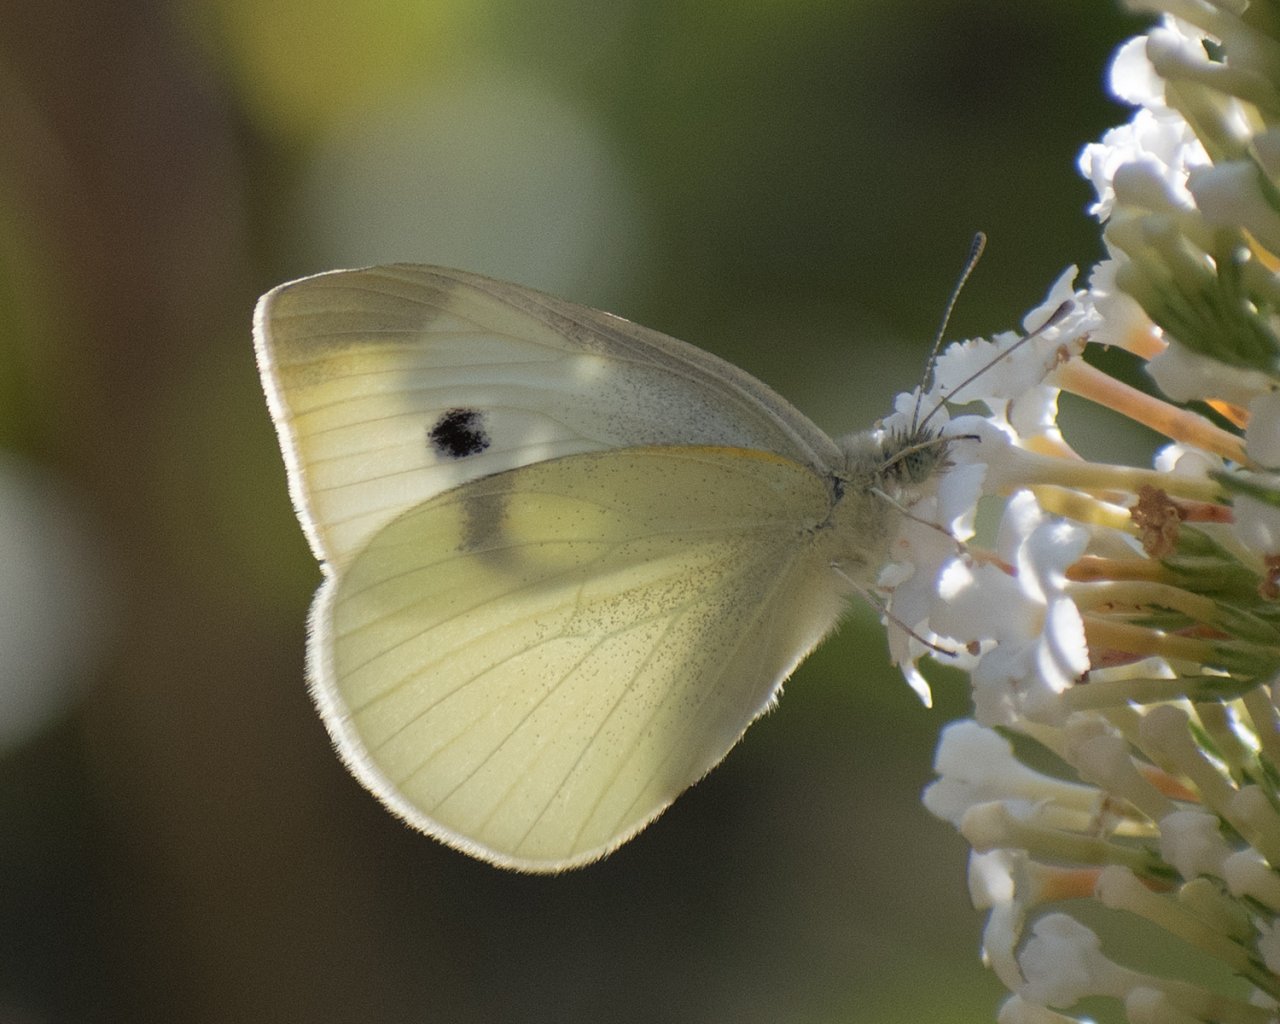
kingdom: Animalia
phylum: Arthropoda
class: Insecta
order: Lepidoptera
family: Pieridae
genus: Pieris
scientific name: Pieris rapae
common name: Cabbage White
